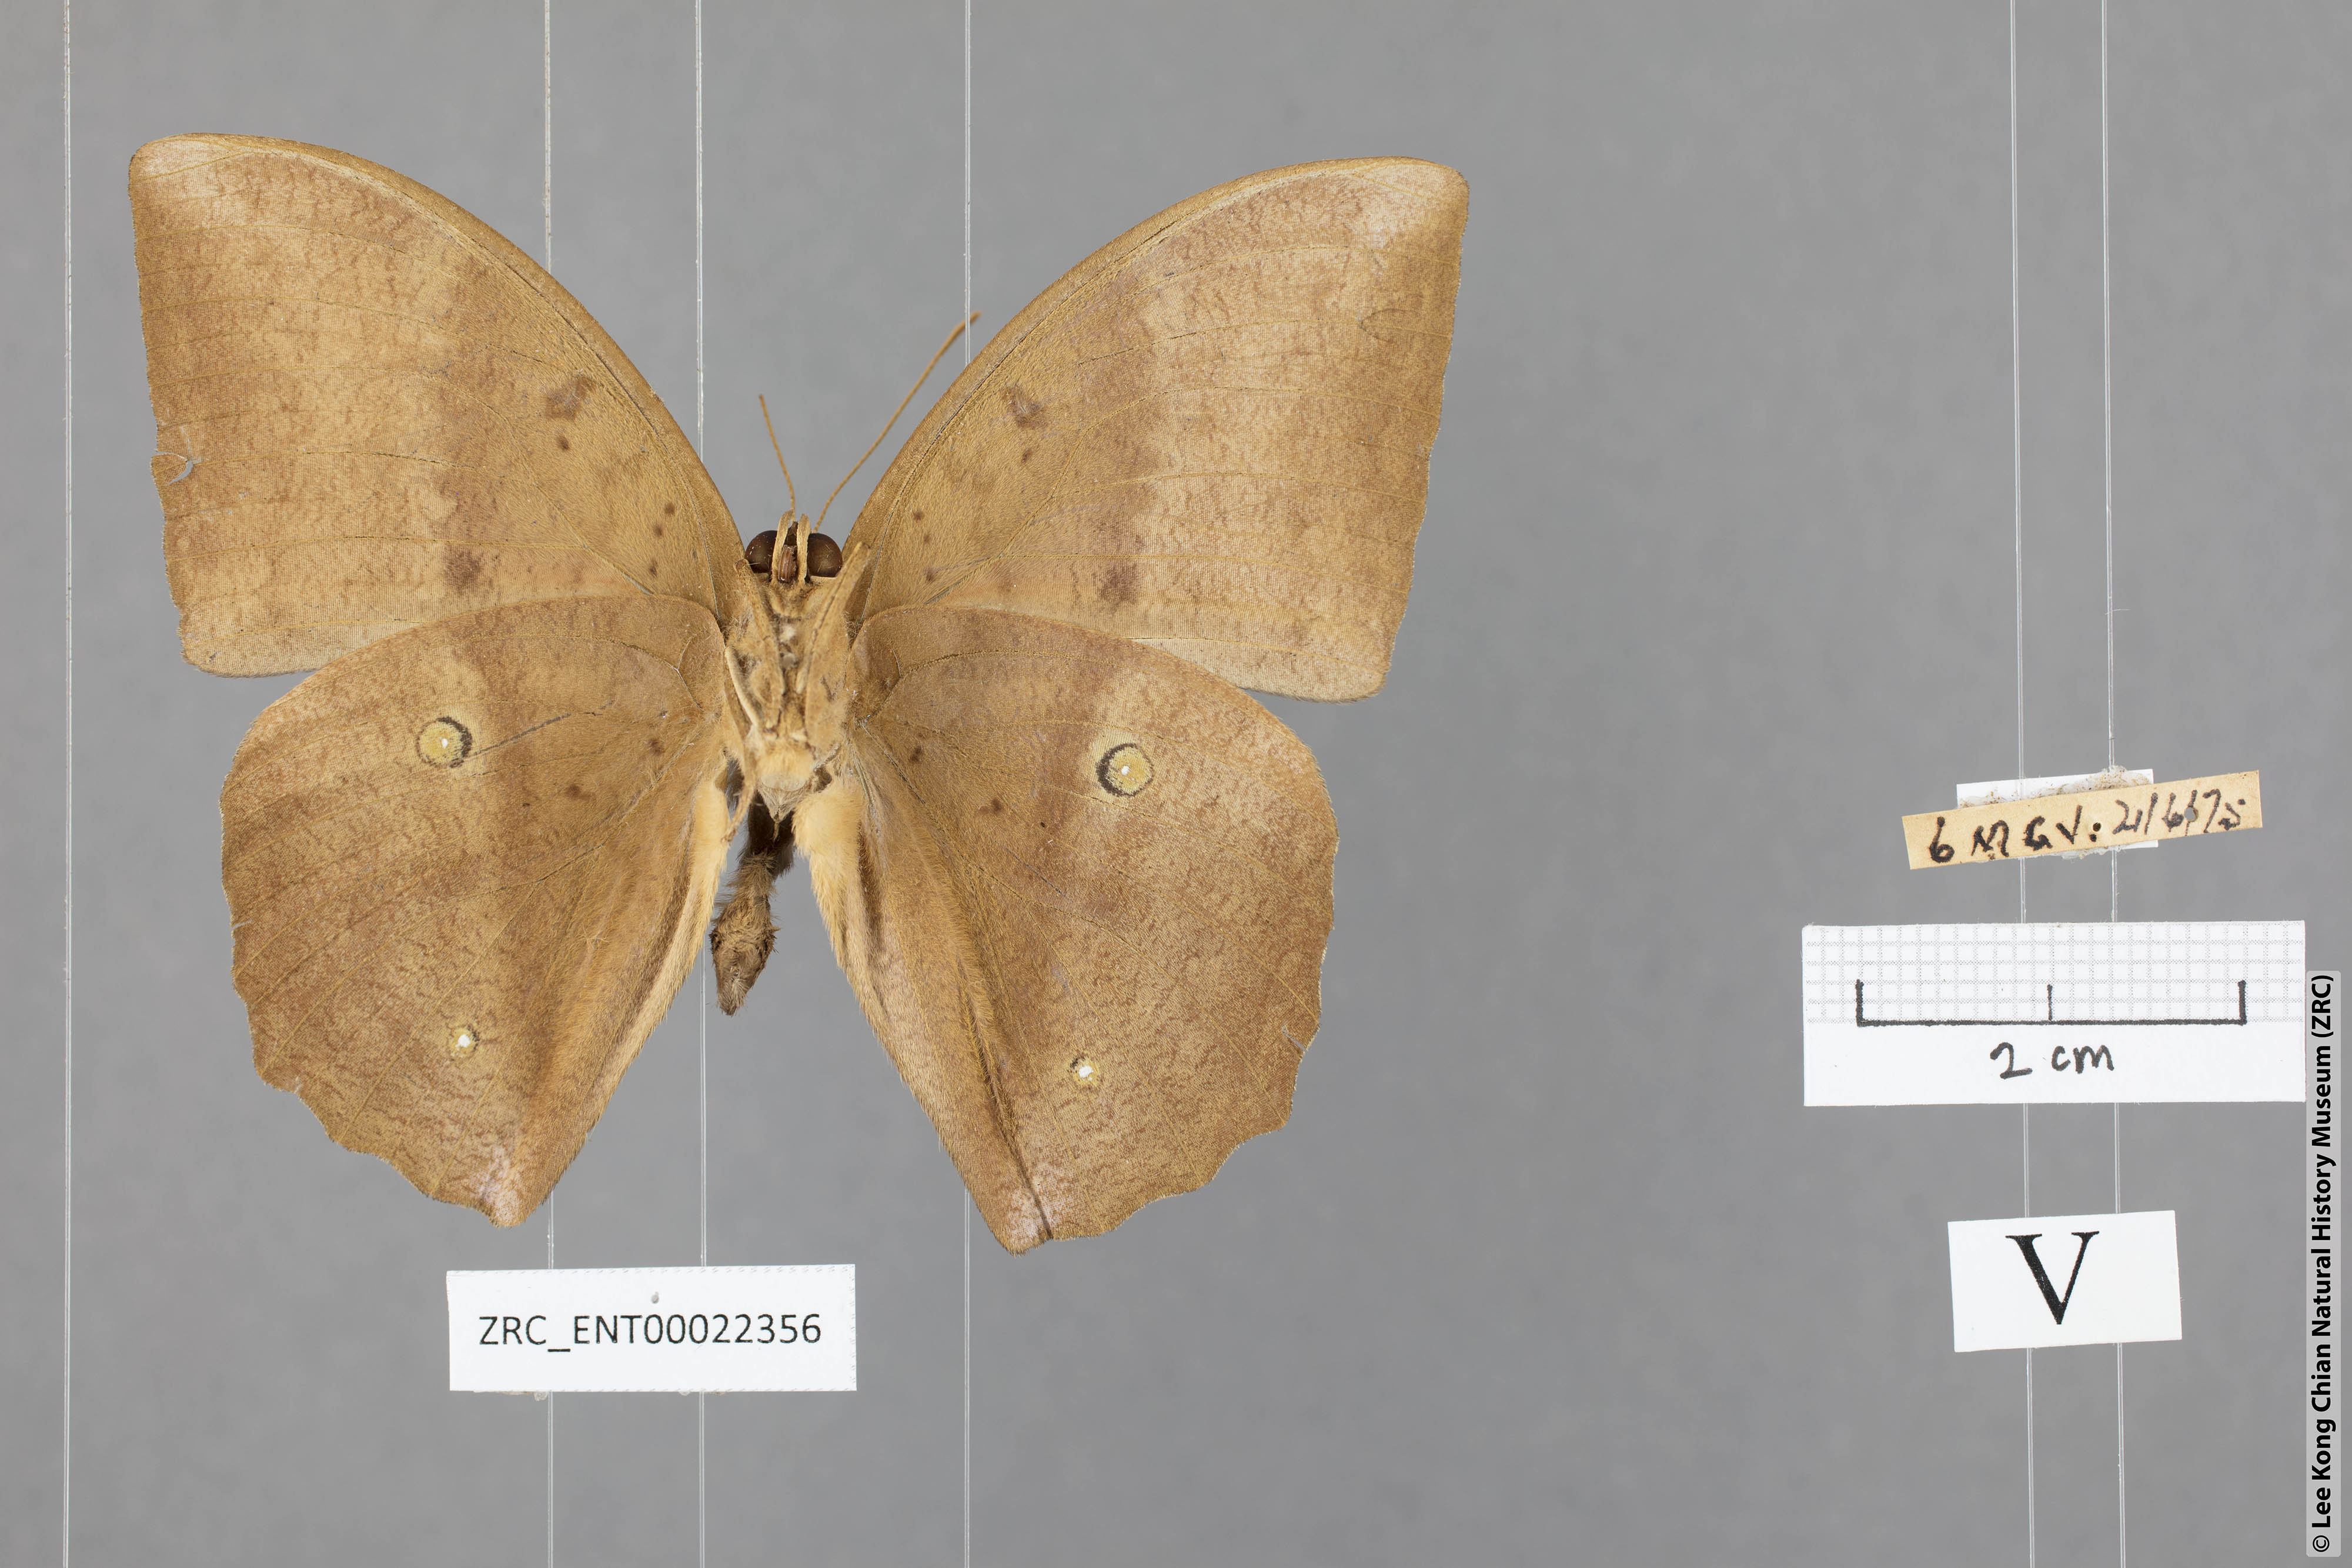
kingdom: Animalia
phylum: Arthropoda
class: Insecta
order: Lepidoptera
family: Nymphalidae
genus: Discophora
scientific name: Discophora sondaica
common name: Common duffer
